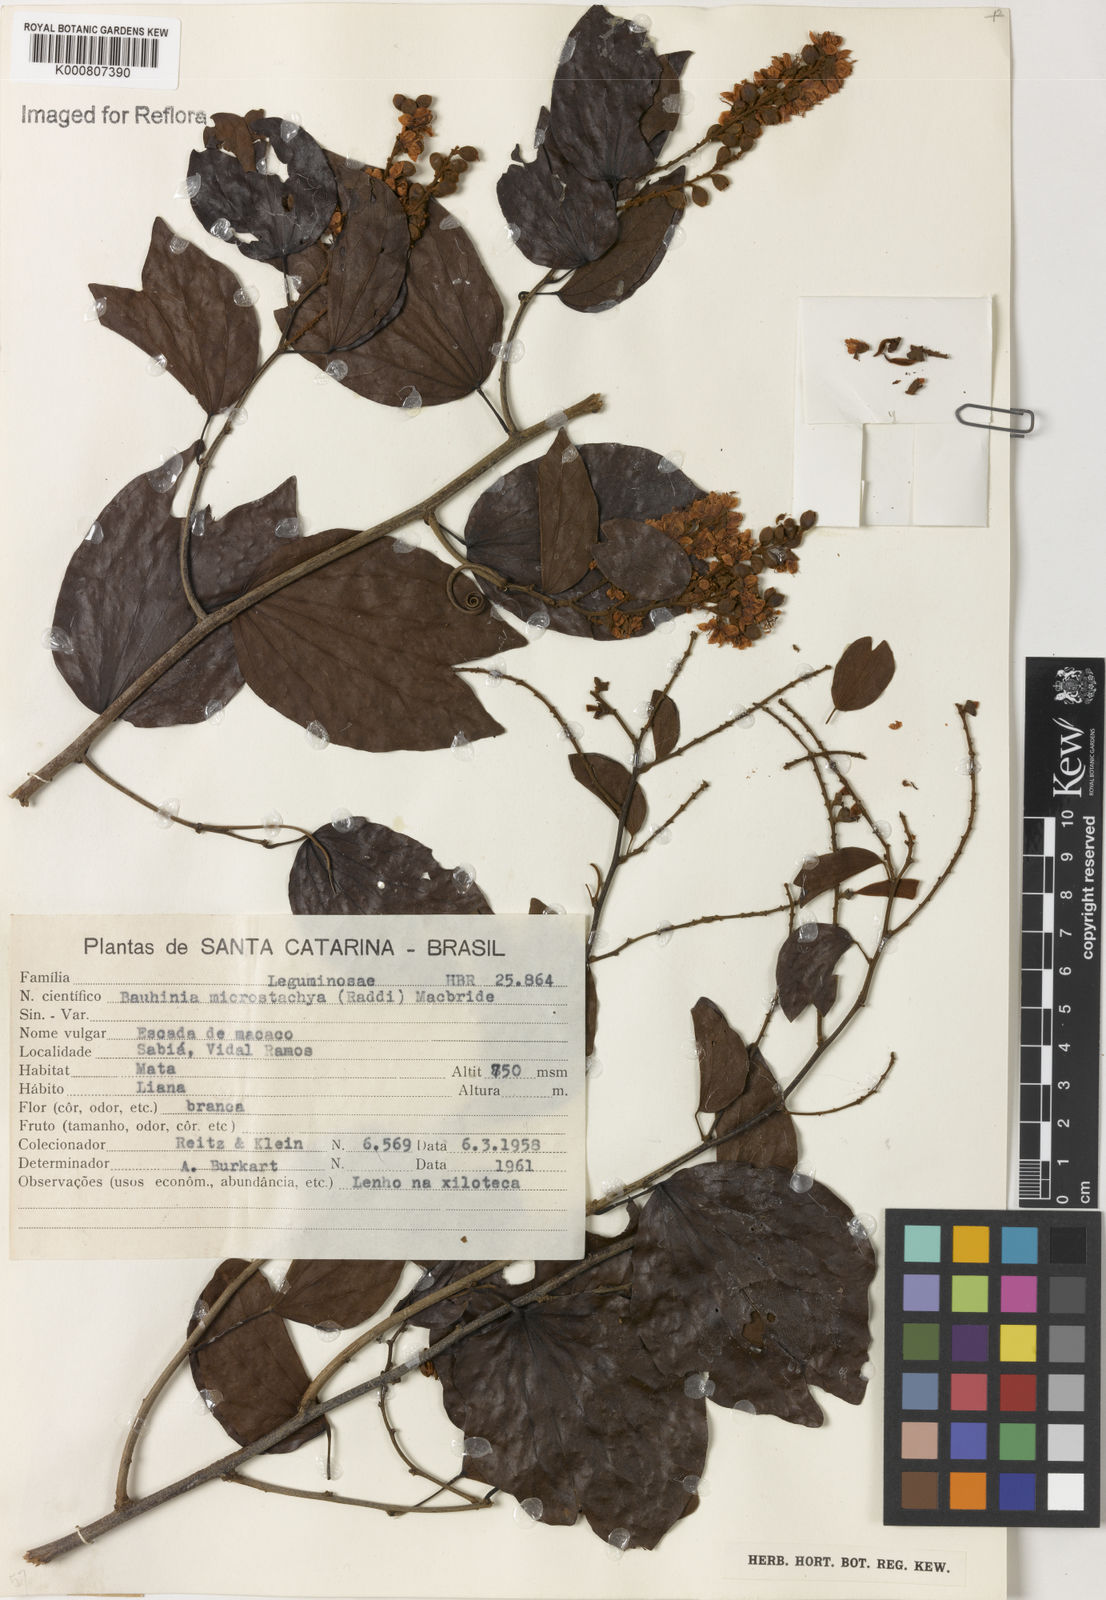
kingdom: Plantae
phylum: Tracheophyta
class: Magnoliopsida
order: Fabales
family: Fabaceae
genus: Schnella
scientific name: Schnella microstachya
